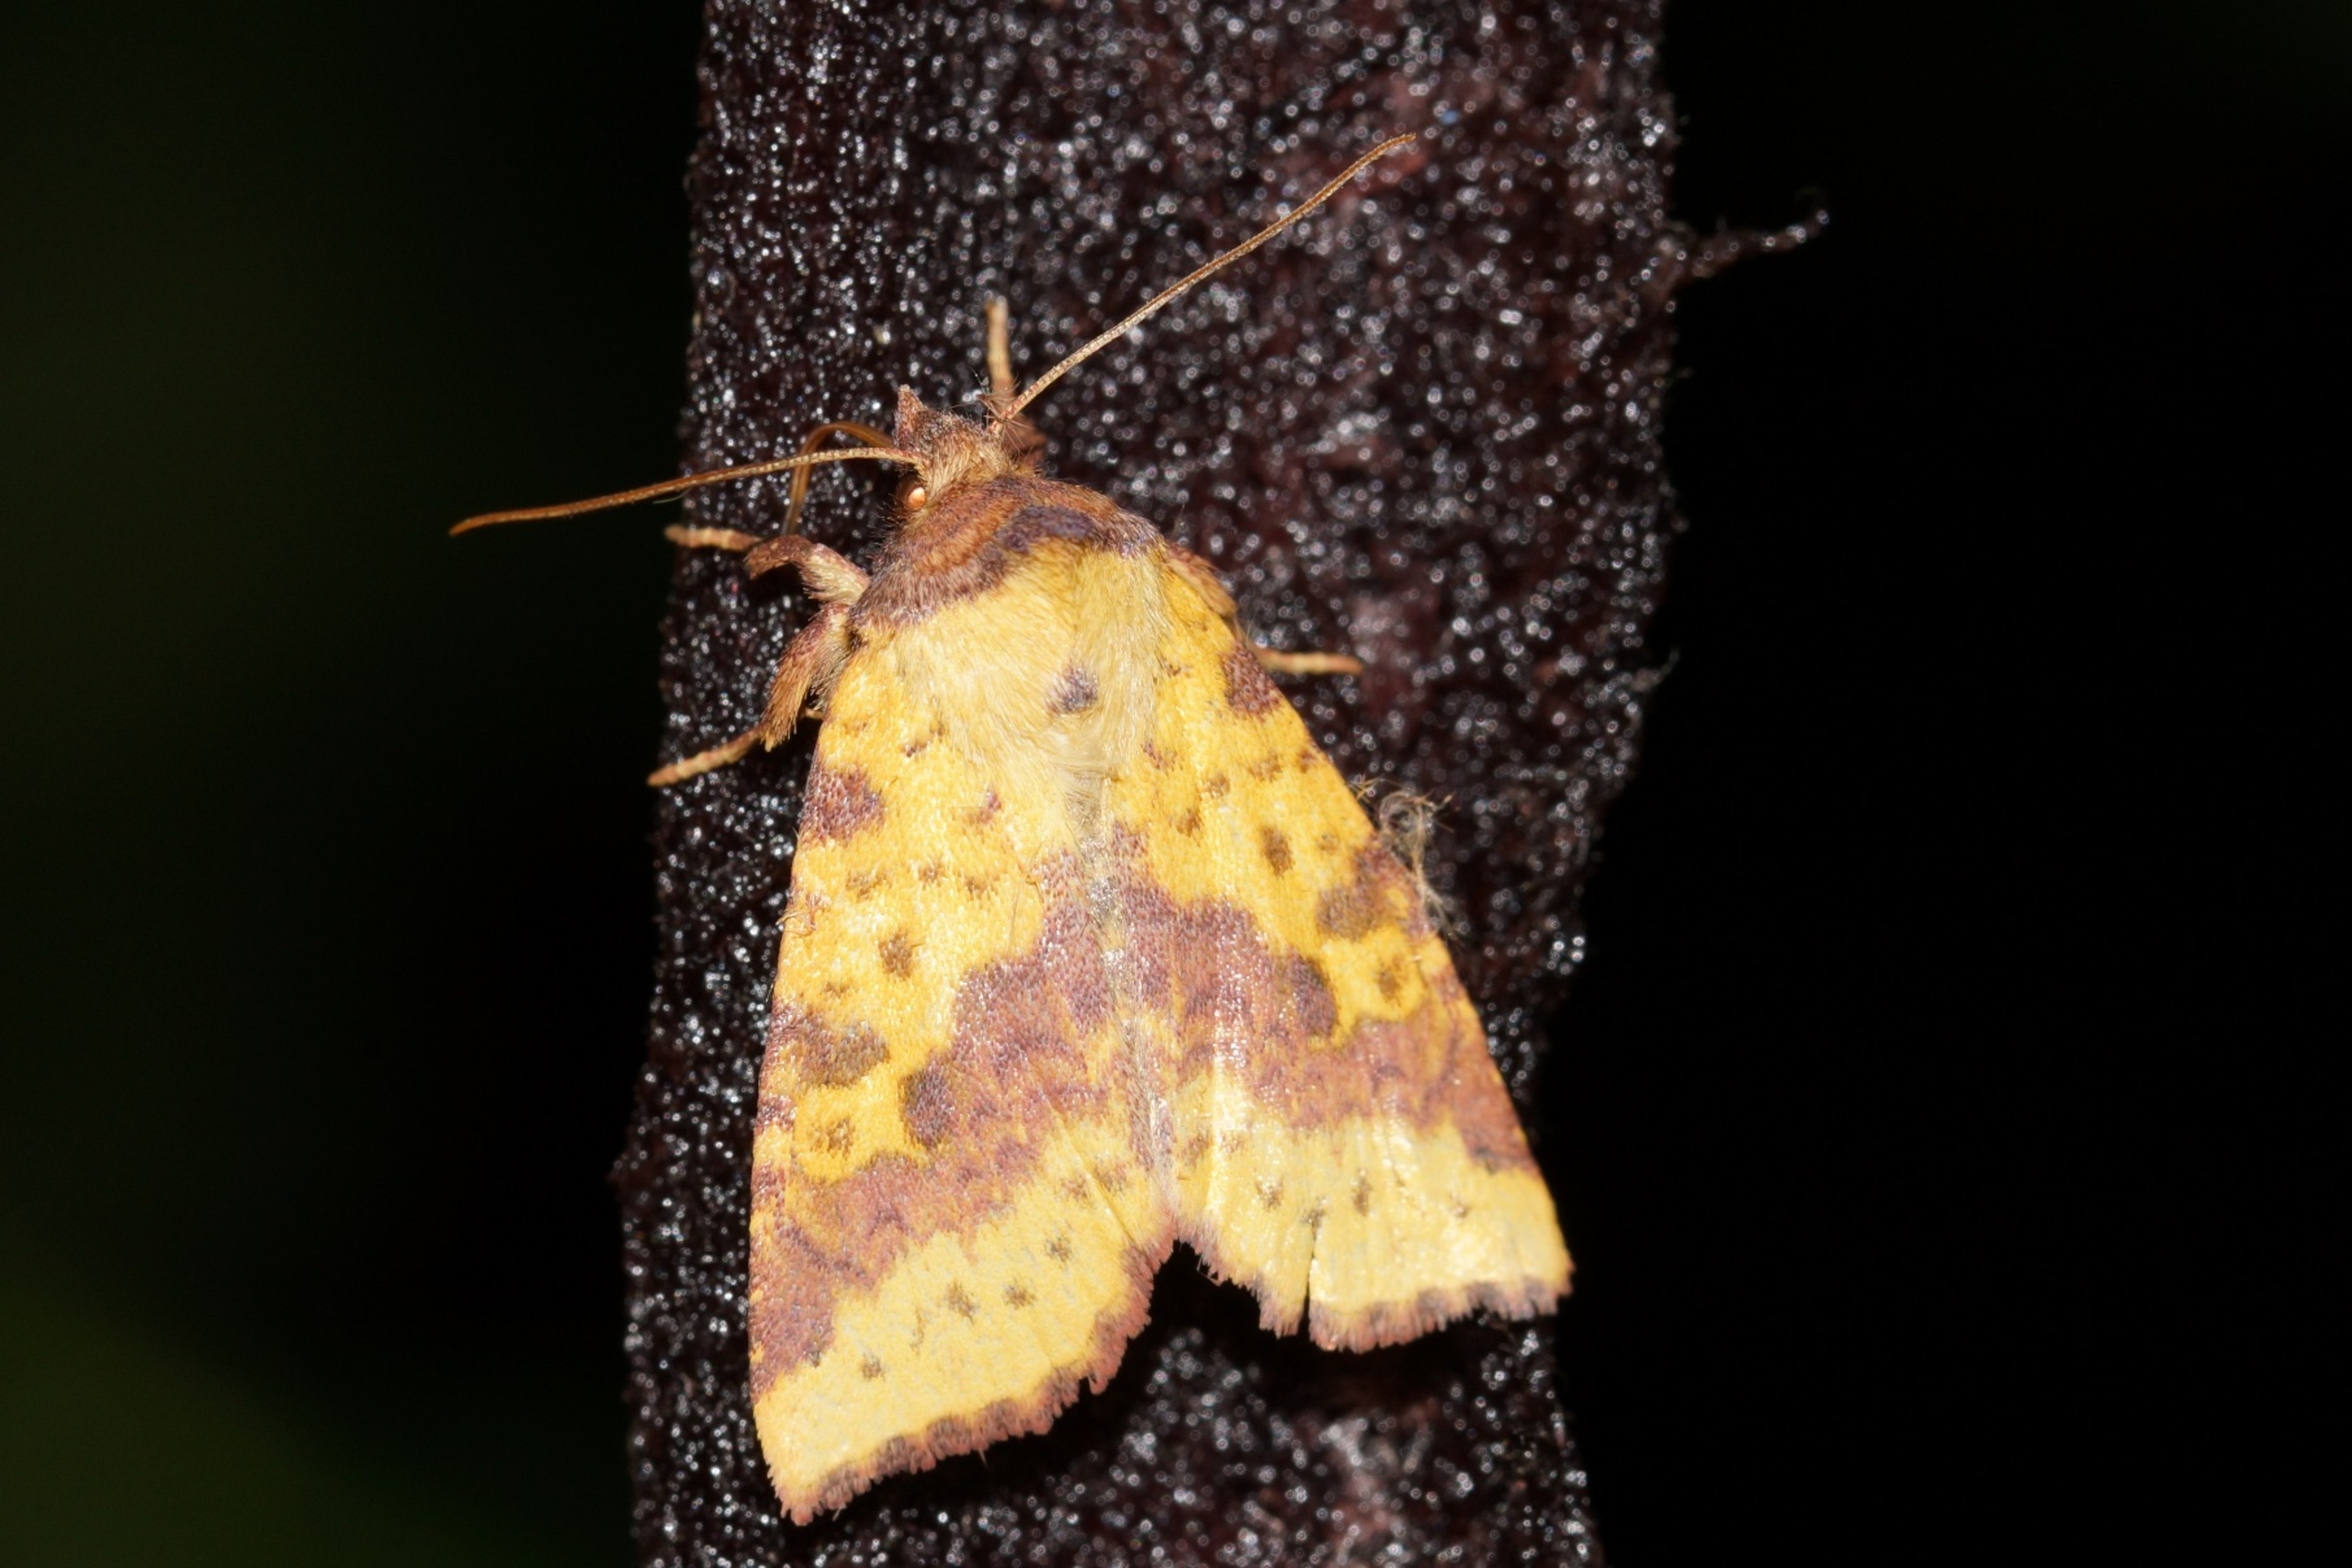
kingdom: Animalia
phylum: Arthropoda
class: Insecta
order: Lepidoptera
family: Noctuidae
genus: Xanthia
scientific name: Xanthia togata
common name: Toga-septemberugle
